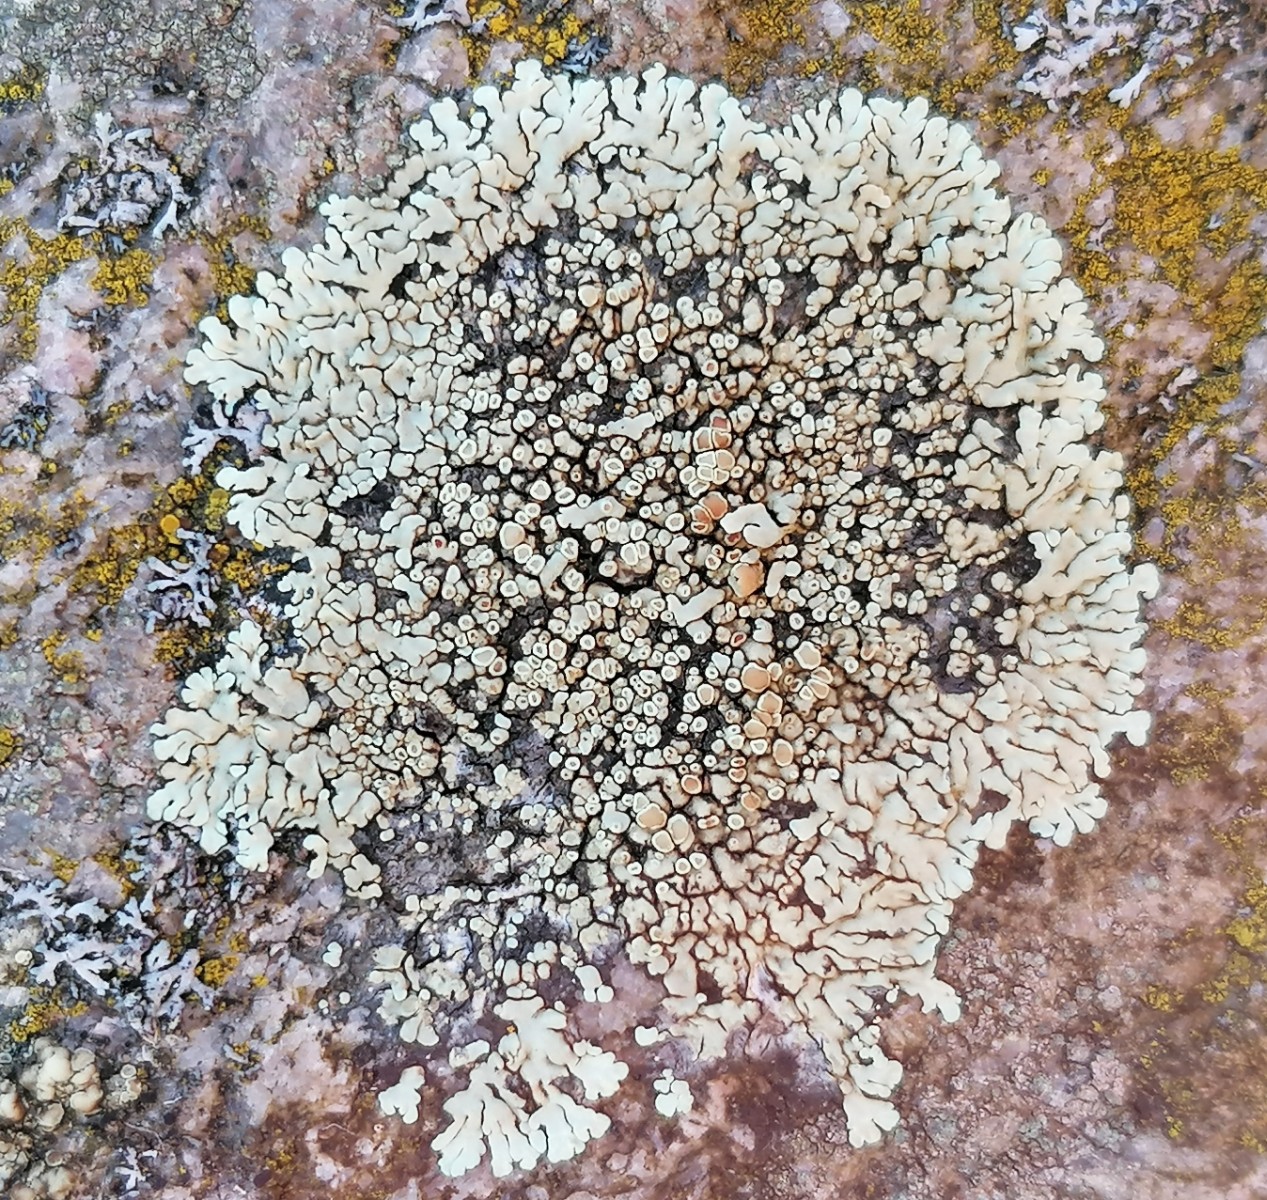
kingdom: Fungi
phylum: Ascomycota
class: Lecanoromycetes
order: Lecanorales
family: Lecanoraceae
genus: Protoparmeliopsis
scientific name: Protoparmeliopsis muralis
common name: randfliget kantskivelav
